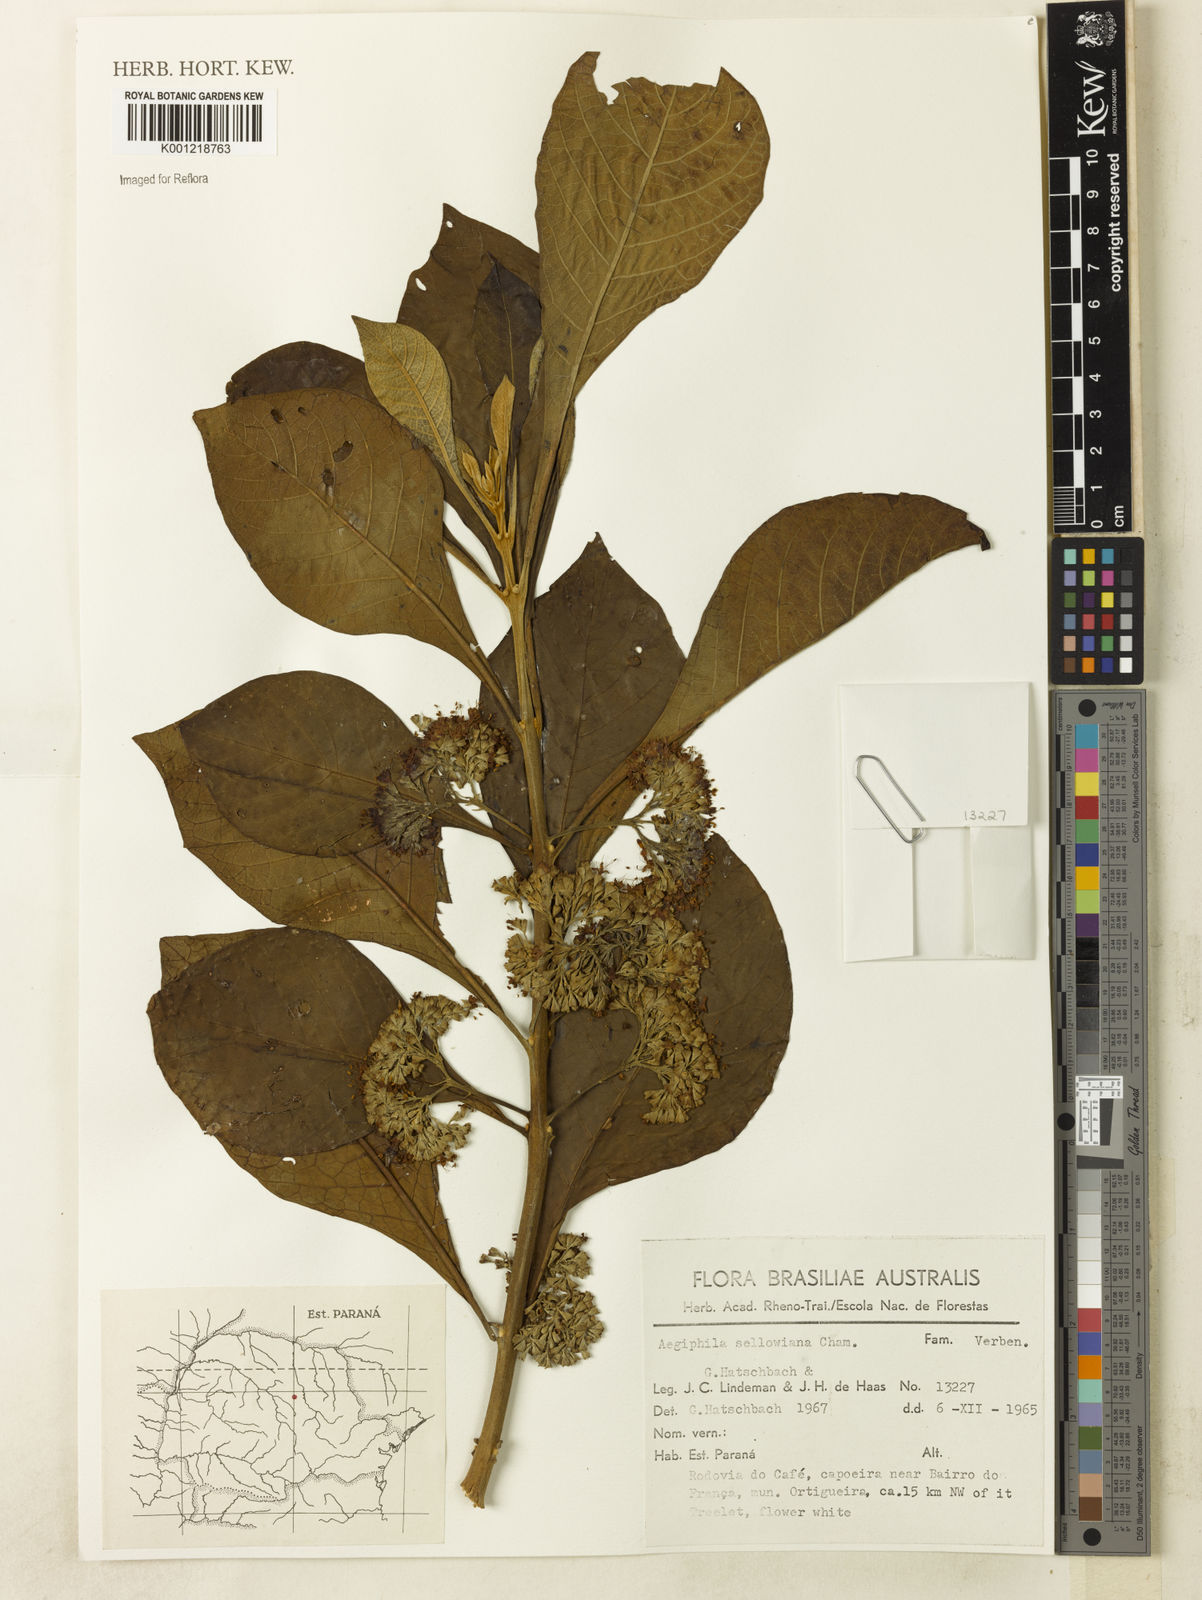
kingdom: Plantae
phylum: Tracheophyta
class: Magnoliopsida
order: Lamiales
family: Lamiaceae
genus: Aegiphila
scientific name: Aegiphila verticillata
